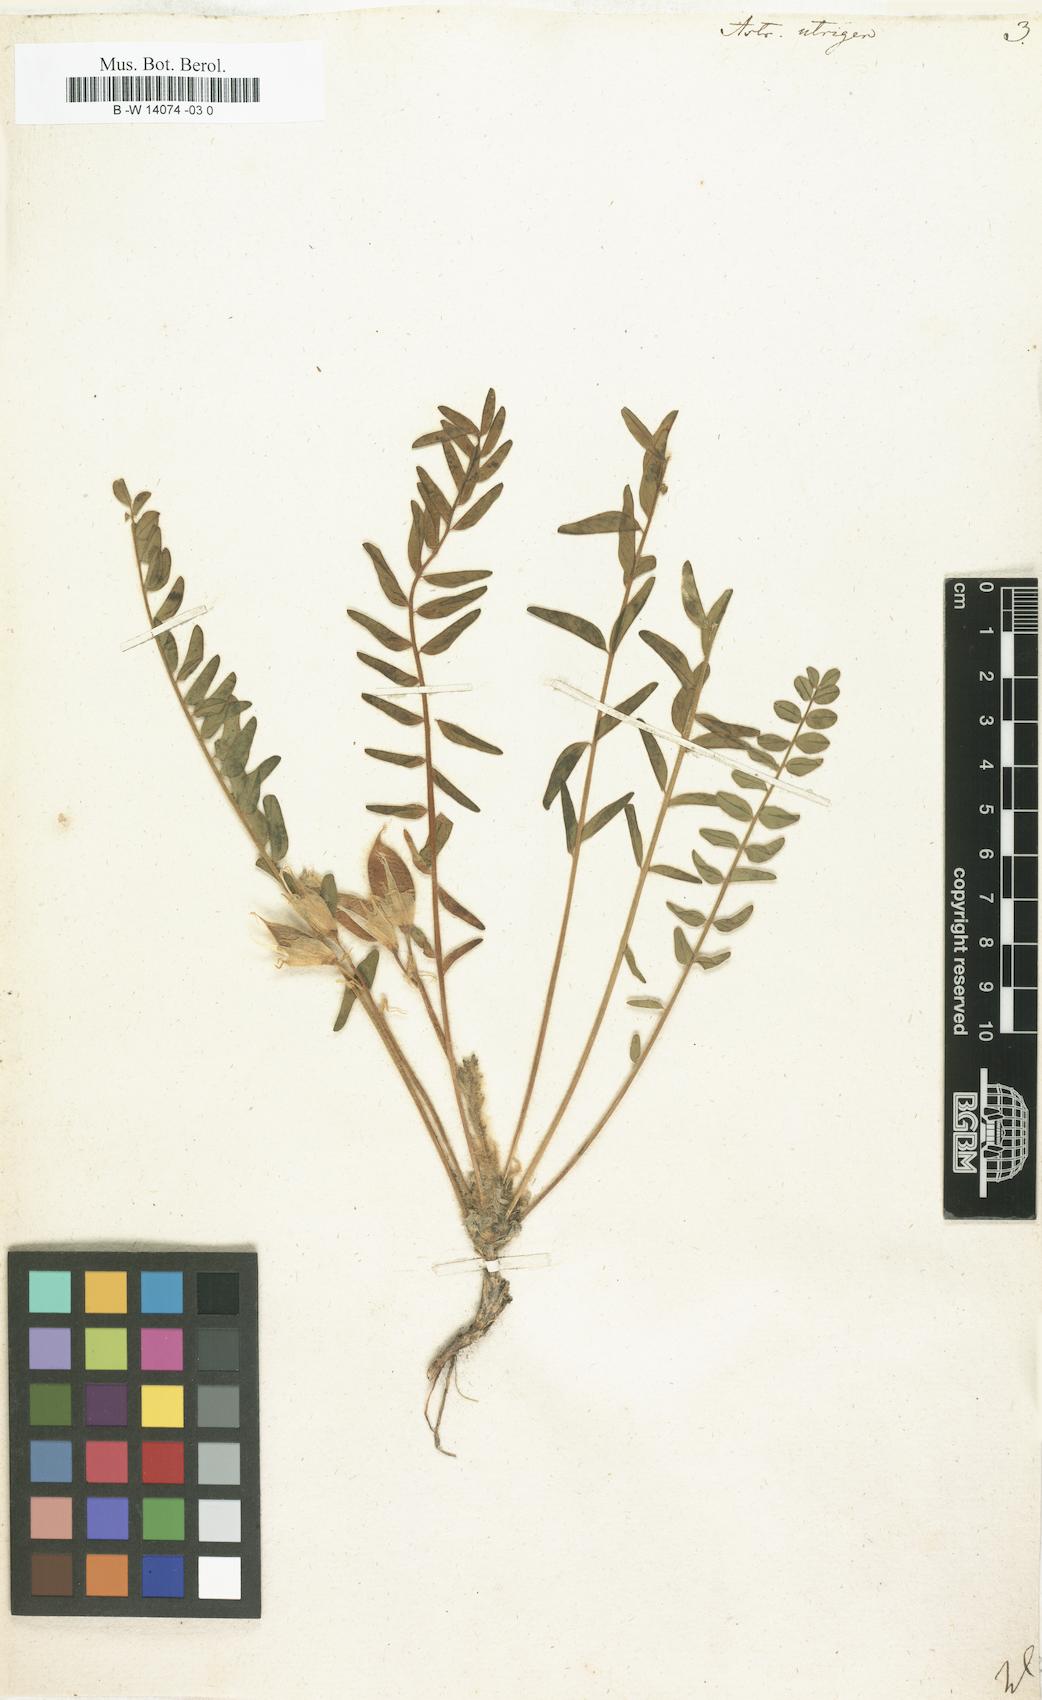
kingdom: Plantae
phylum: Tracheophyta
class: Magnoliopsida
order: Fabales
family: Fabaceae
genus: Astragalus
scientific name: Astragalus utriger
